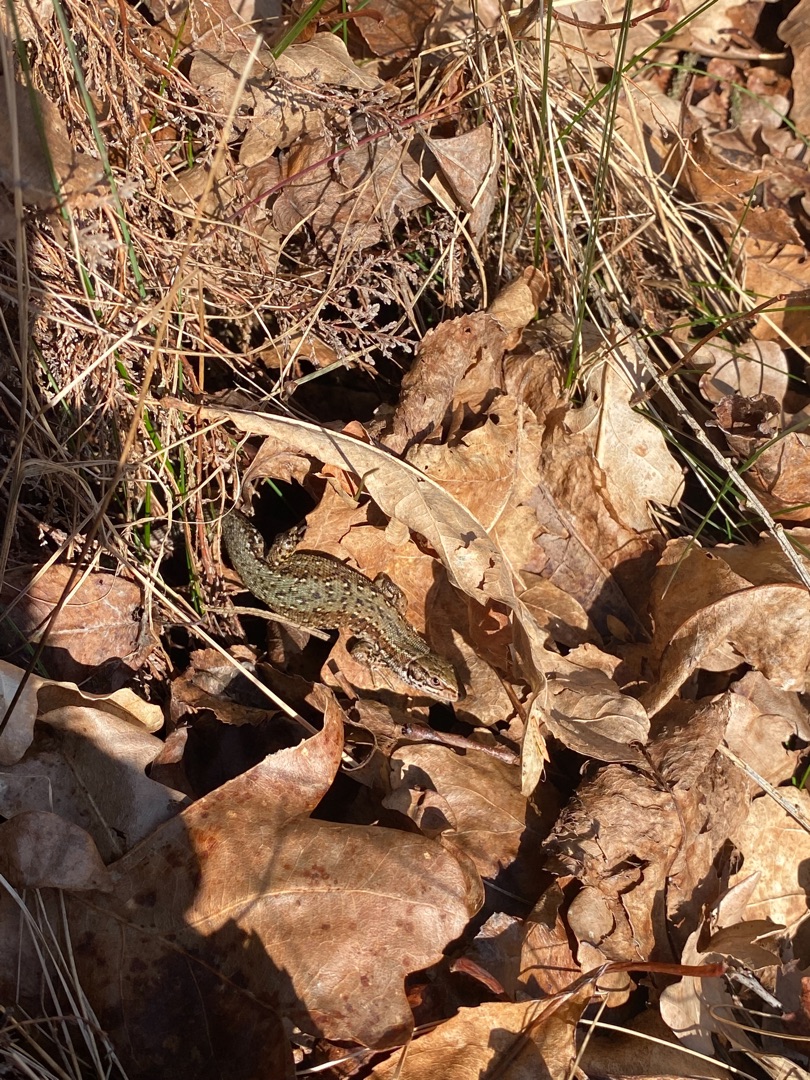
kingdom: Animalia
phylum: Chordata
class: Squamata
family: Lacertidae
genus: Zootoca
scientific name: Zootoca vivipara
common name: Skovfirben
